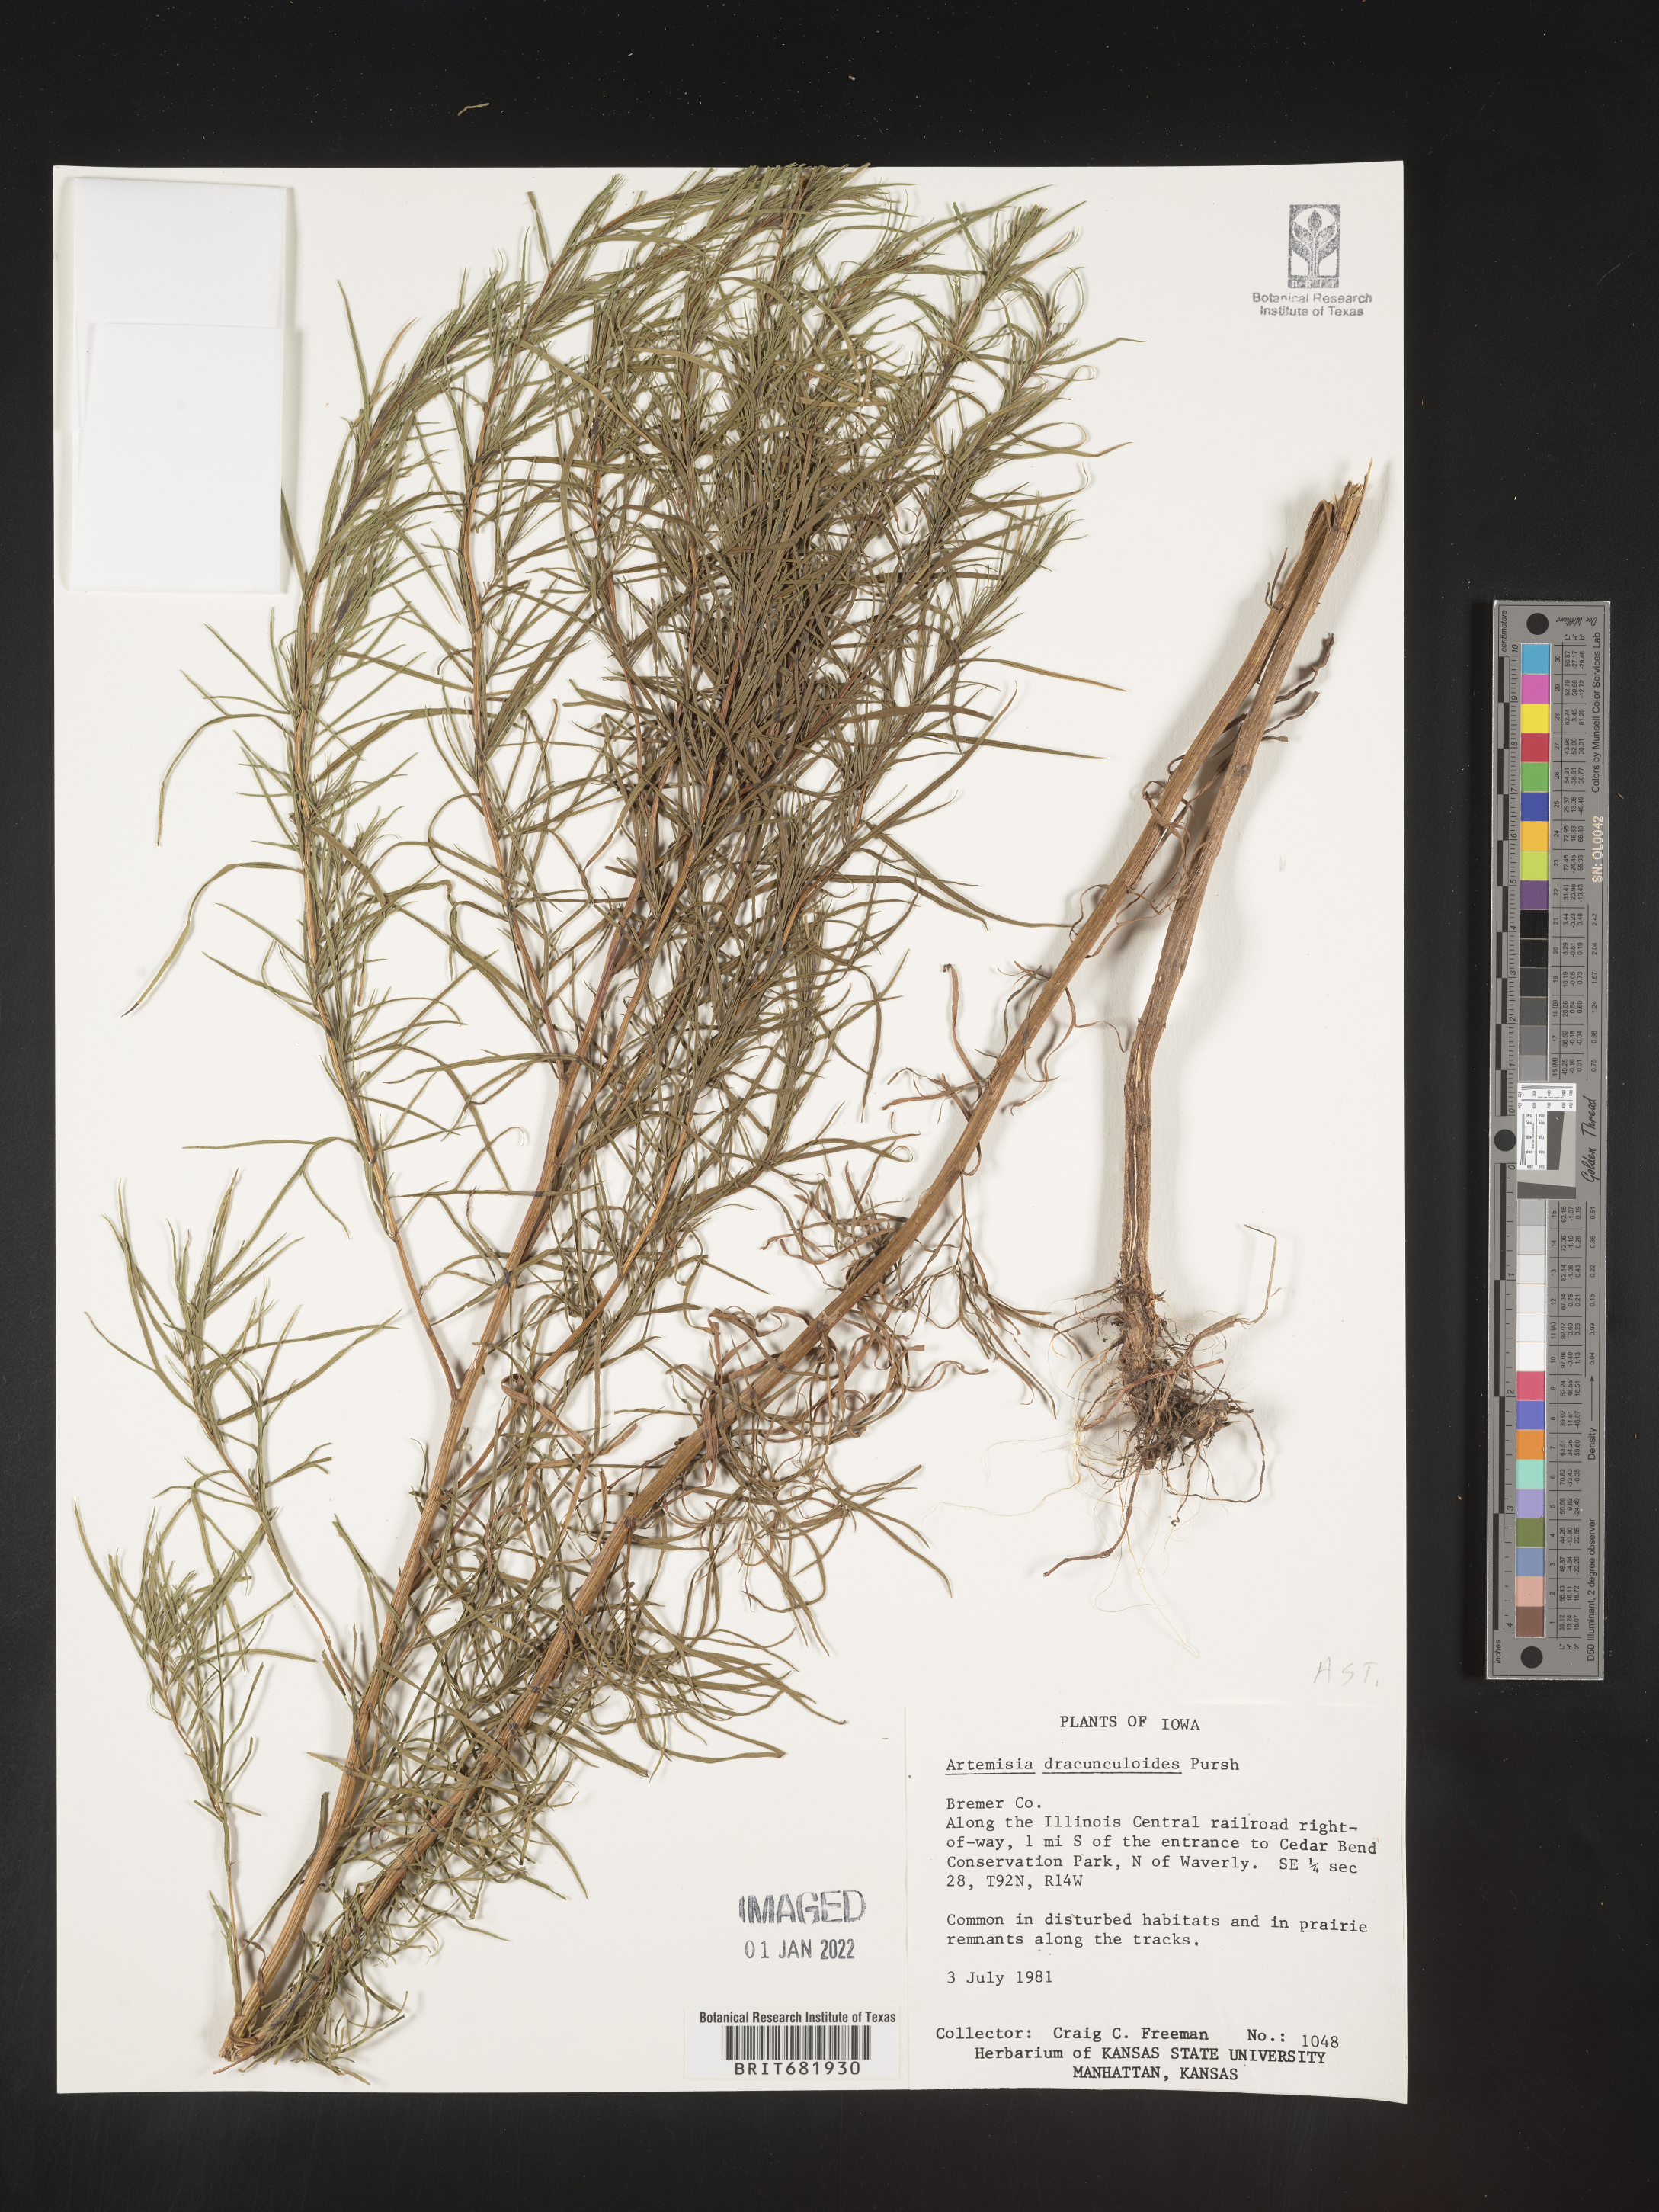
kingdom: Plantae
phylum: Tracheophyta
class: Magnoliopsida
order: Asterales
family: Asteraceae
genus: Artemisia
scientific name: Artemisia dracunculus
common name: Tarragon
